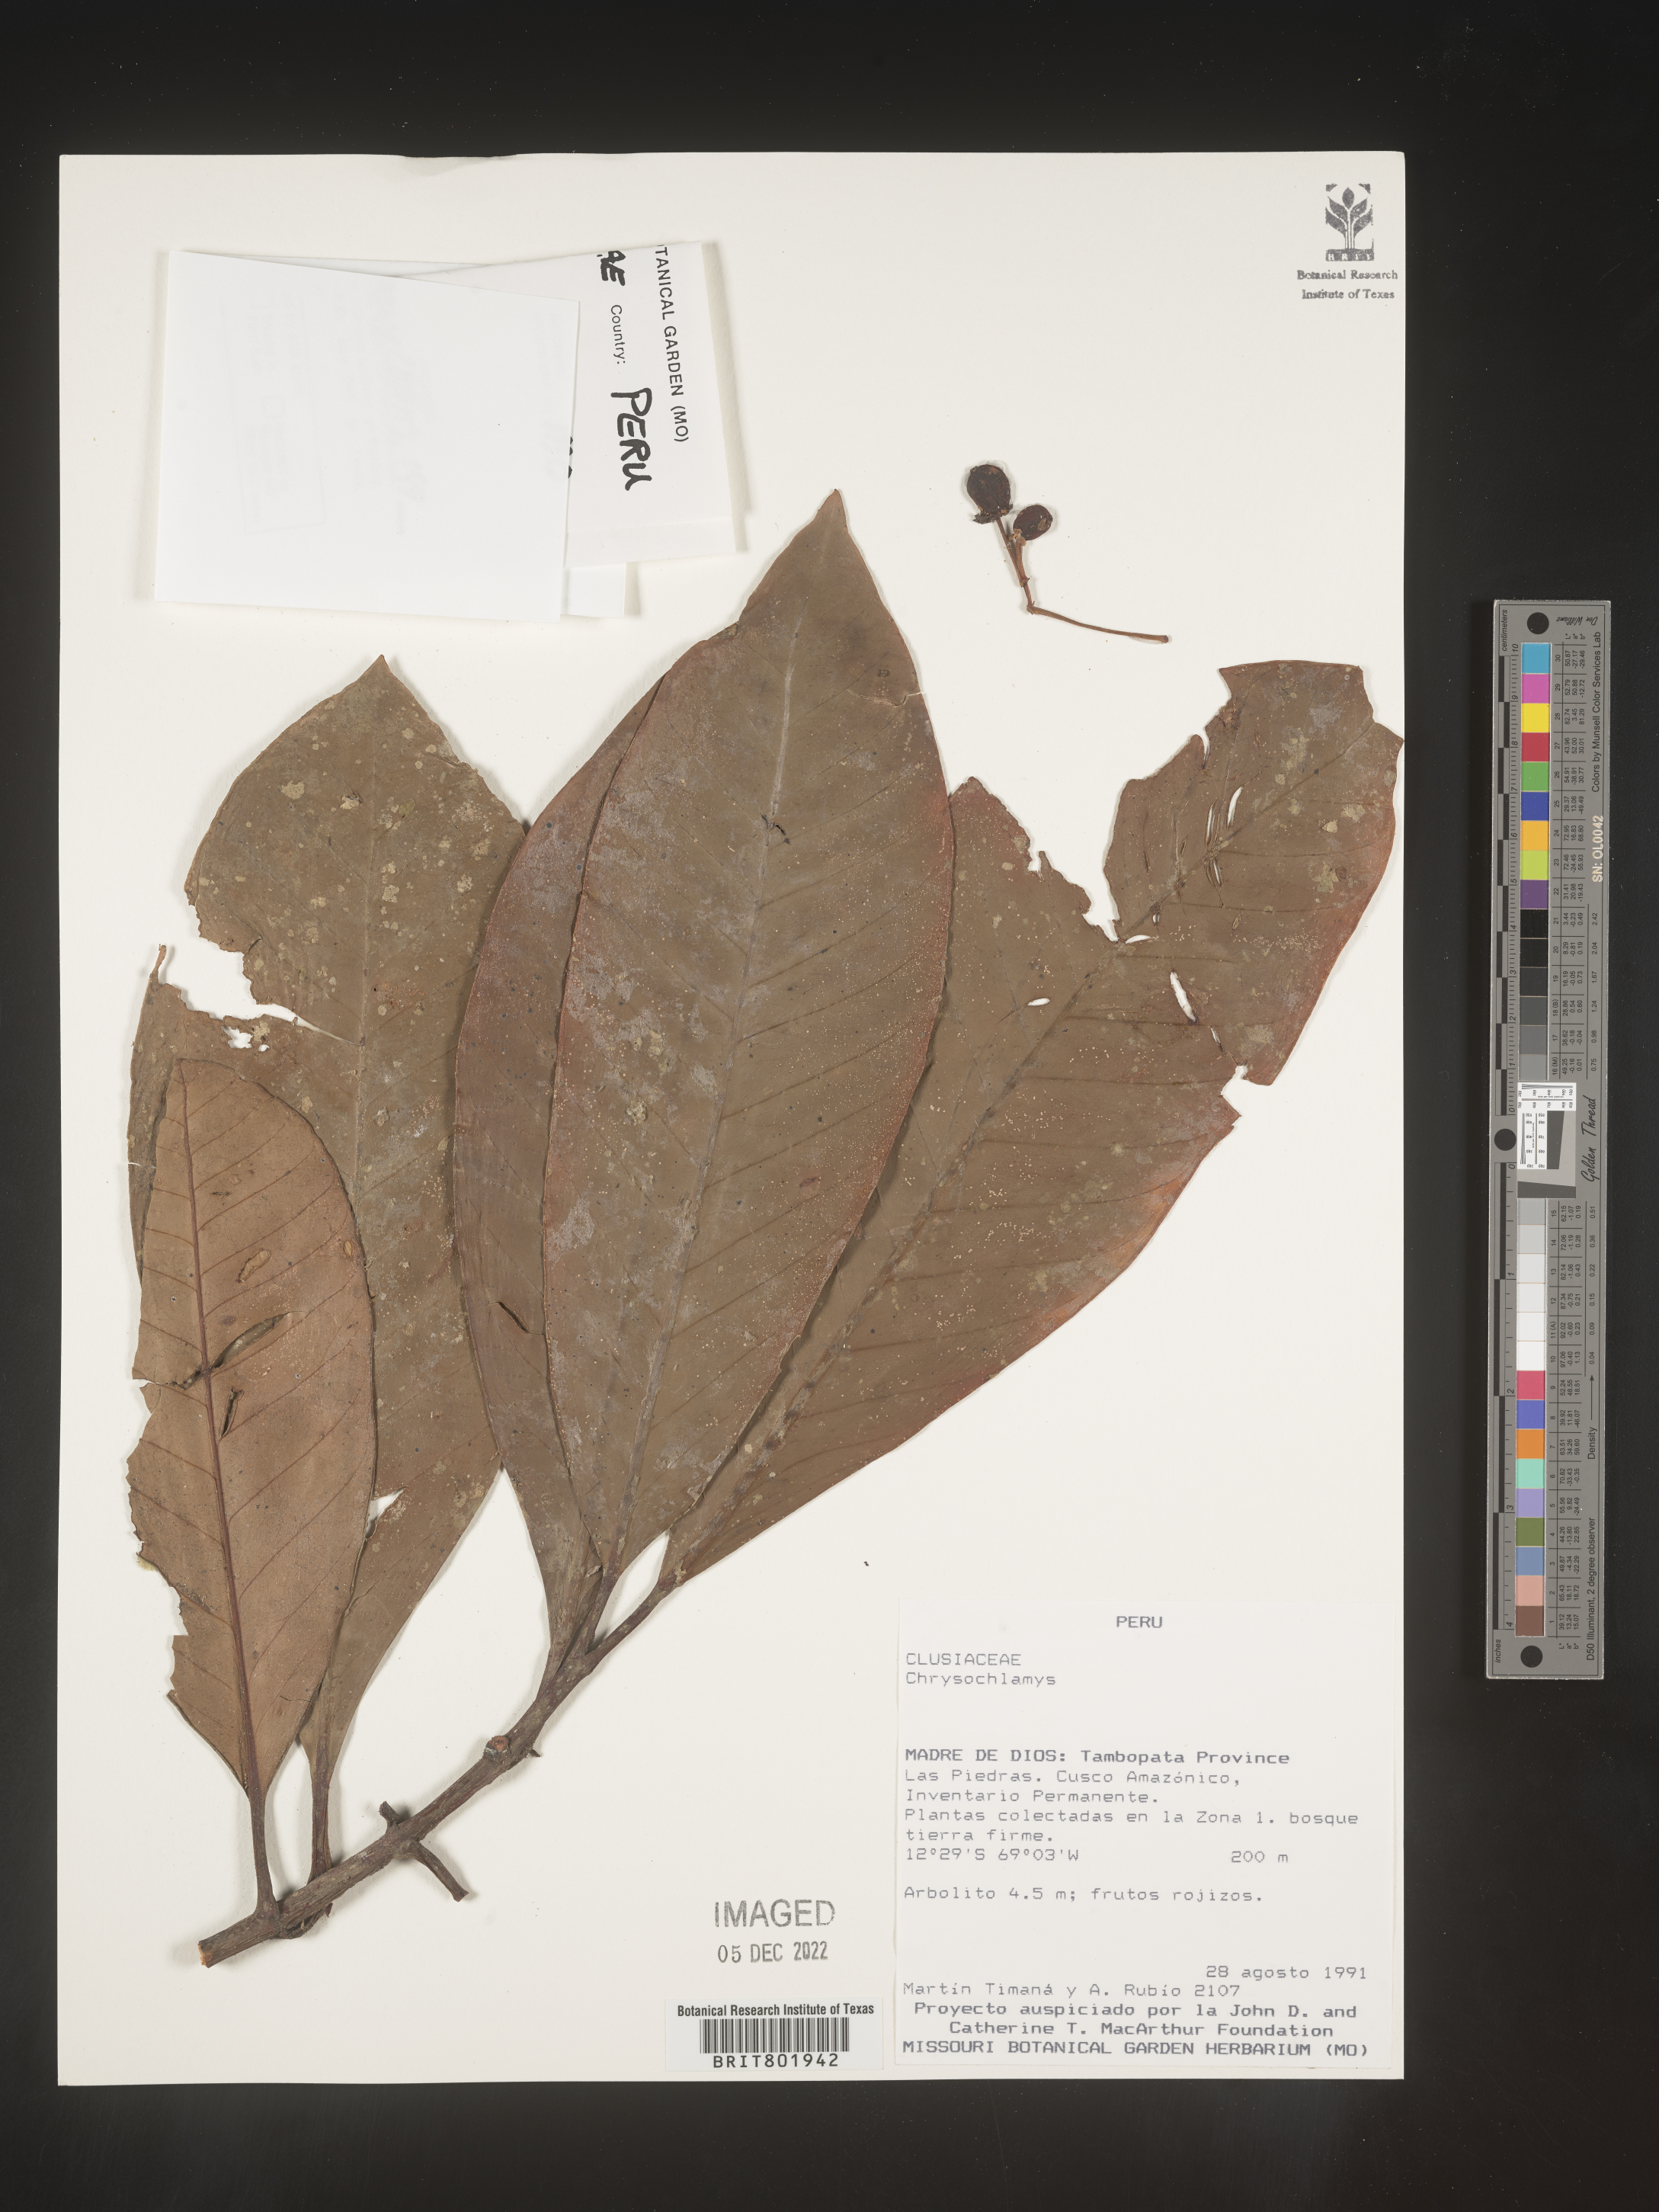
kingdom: Plantae
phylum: Tracheophyta
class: Magnoliopsida
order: Malpighiales
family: Clusiaceae
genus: Chrysochlamys
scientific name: Chrysochlamys
